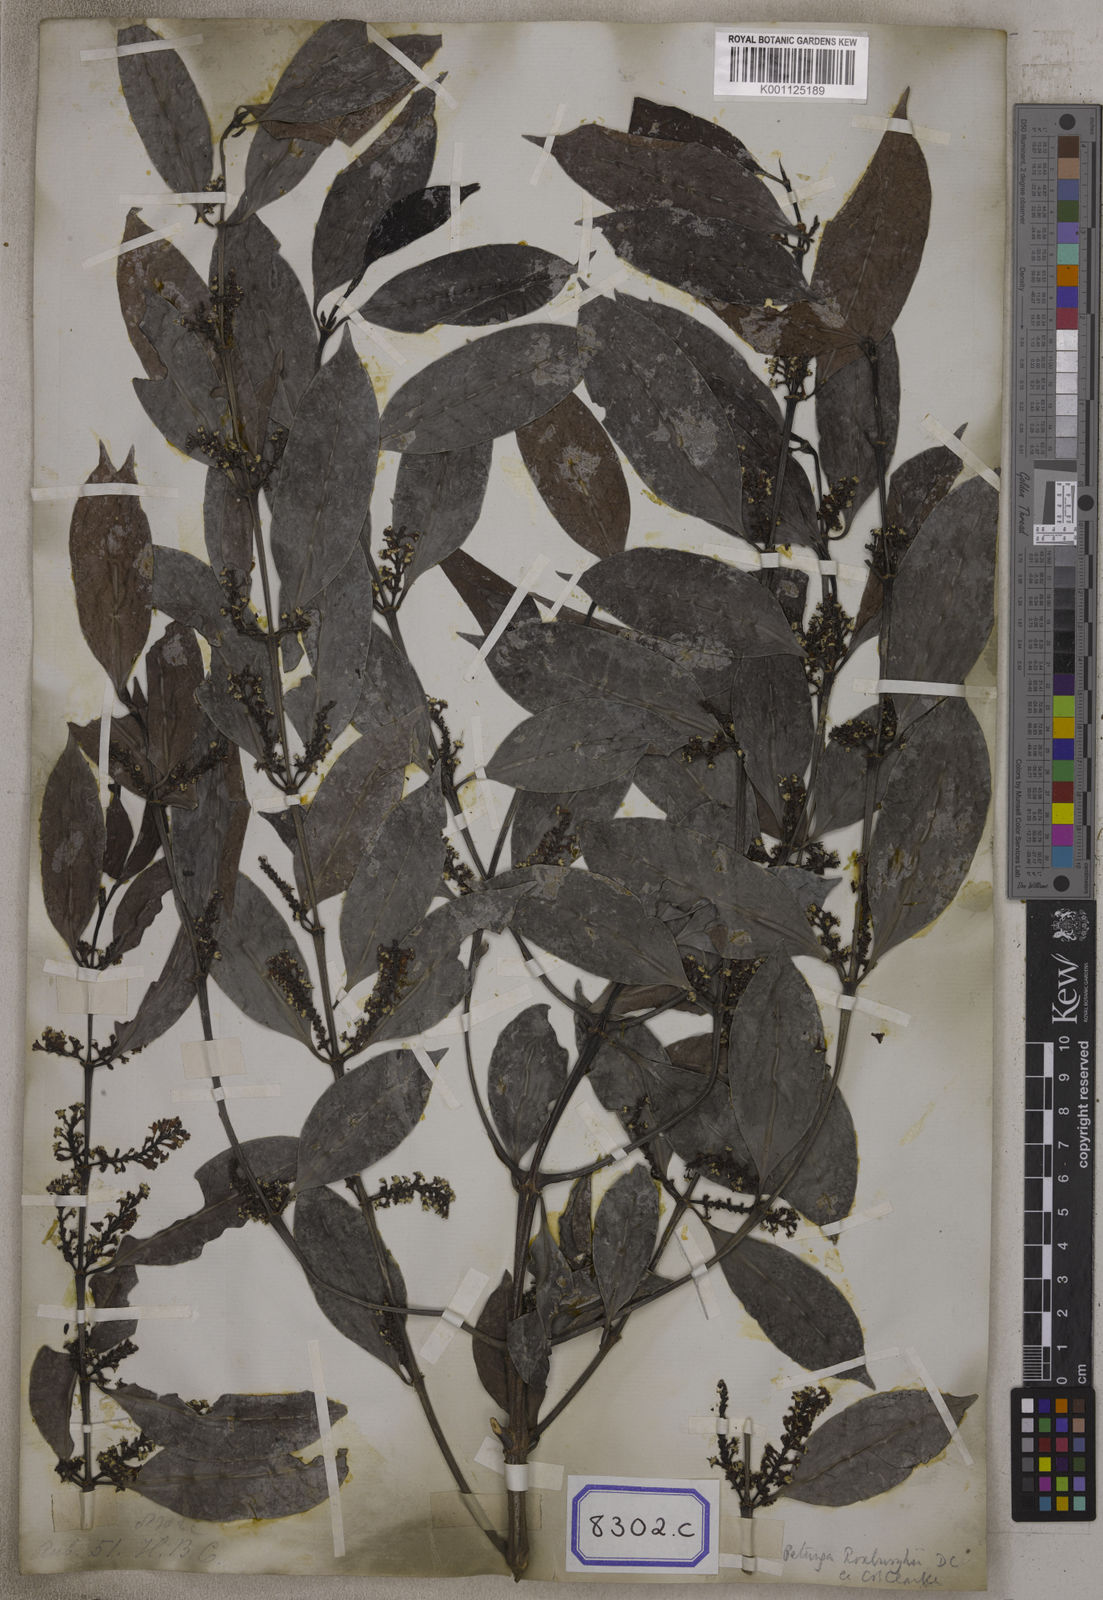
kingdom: Plantae
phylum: Tracheophyta
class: Magnoliopsida
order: Gentianales
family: Rubiaceae
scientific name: Rubiaceae
